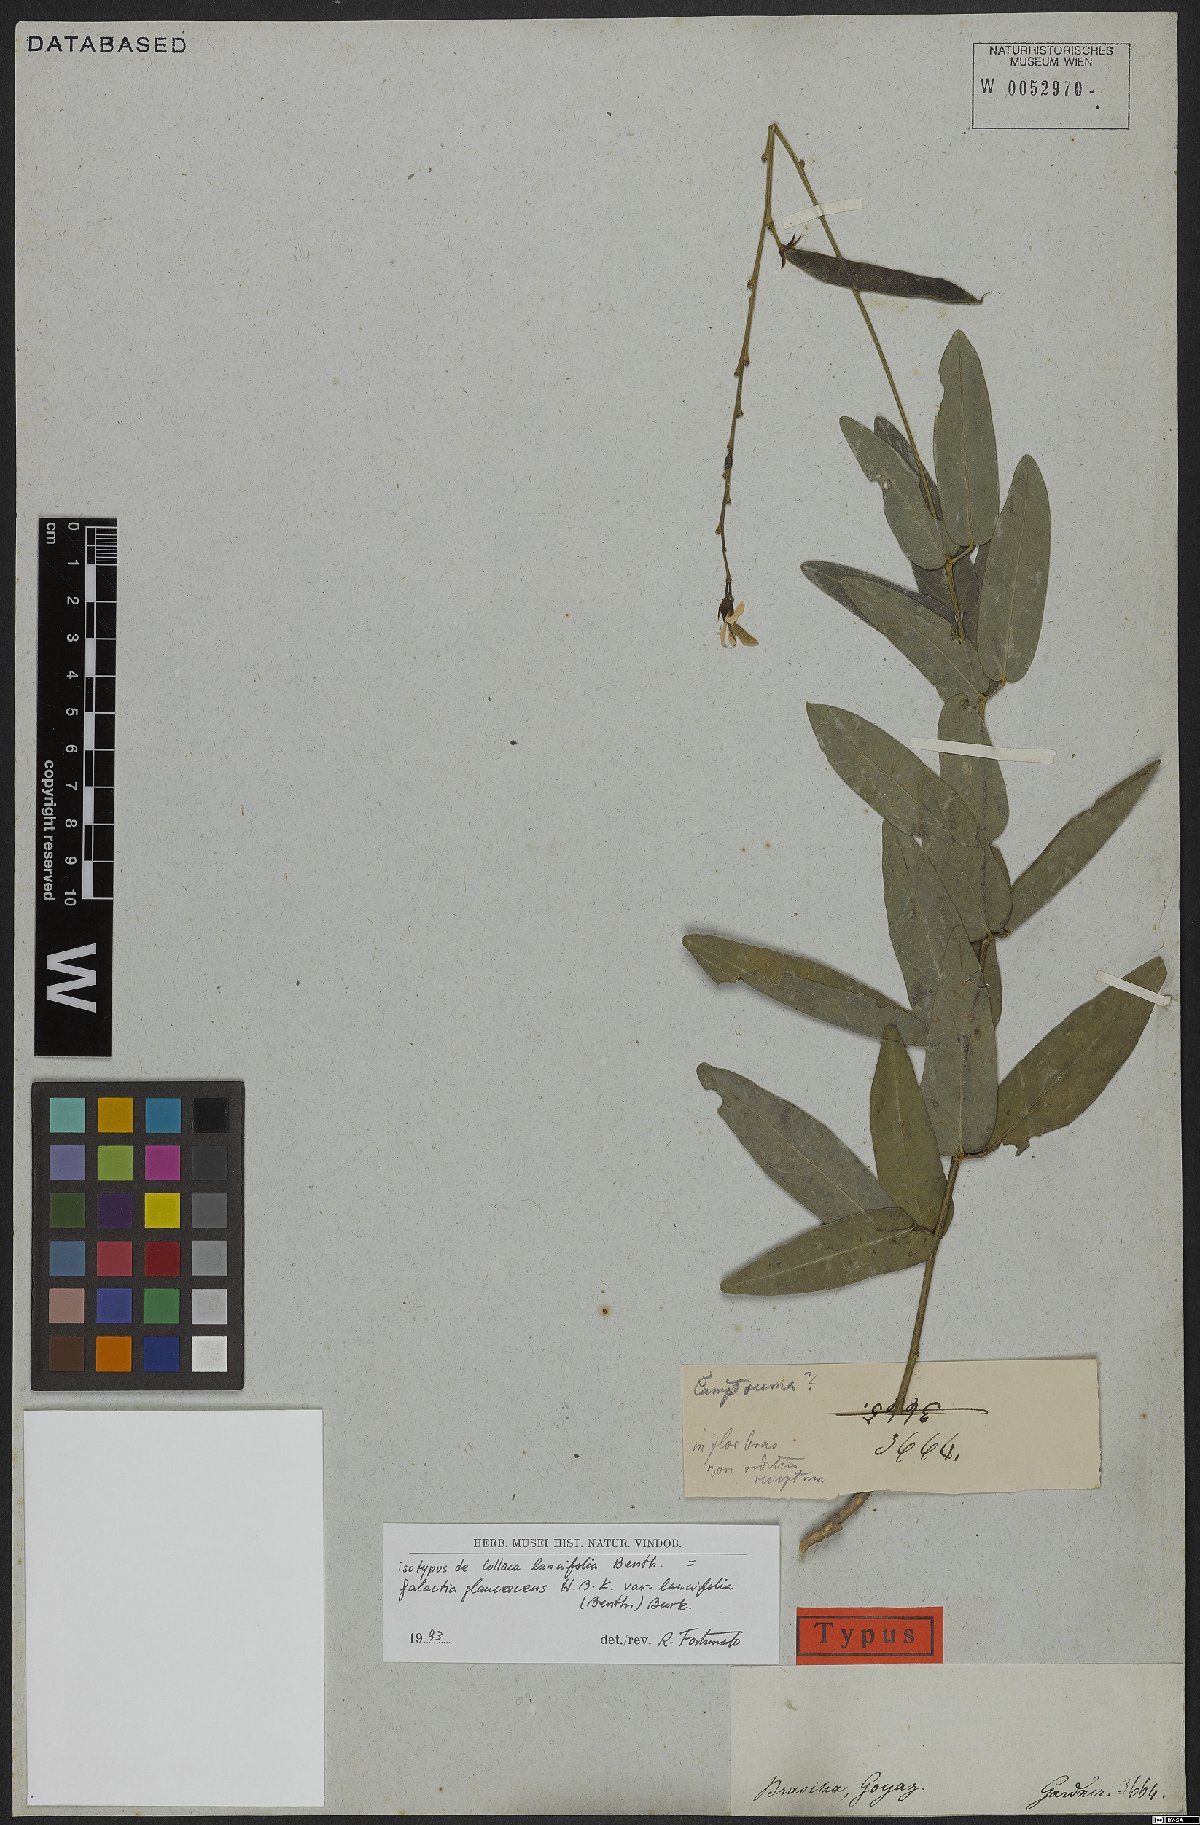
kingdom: Plantae
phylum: Tracheophyta
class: Magnoliopsida
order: Fabales
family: Fabaceae
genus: Galactia
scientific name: Galactia glaucescens
